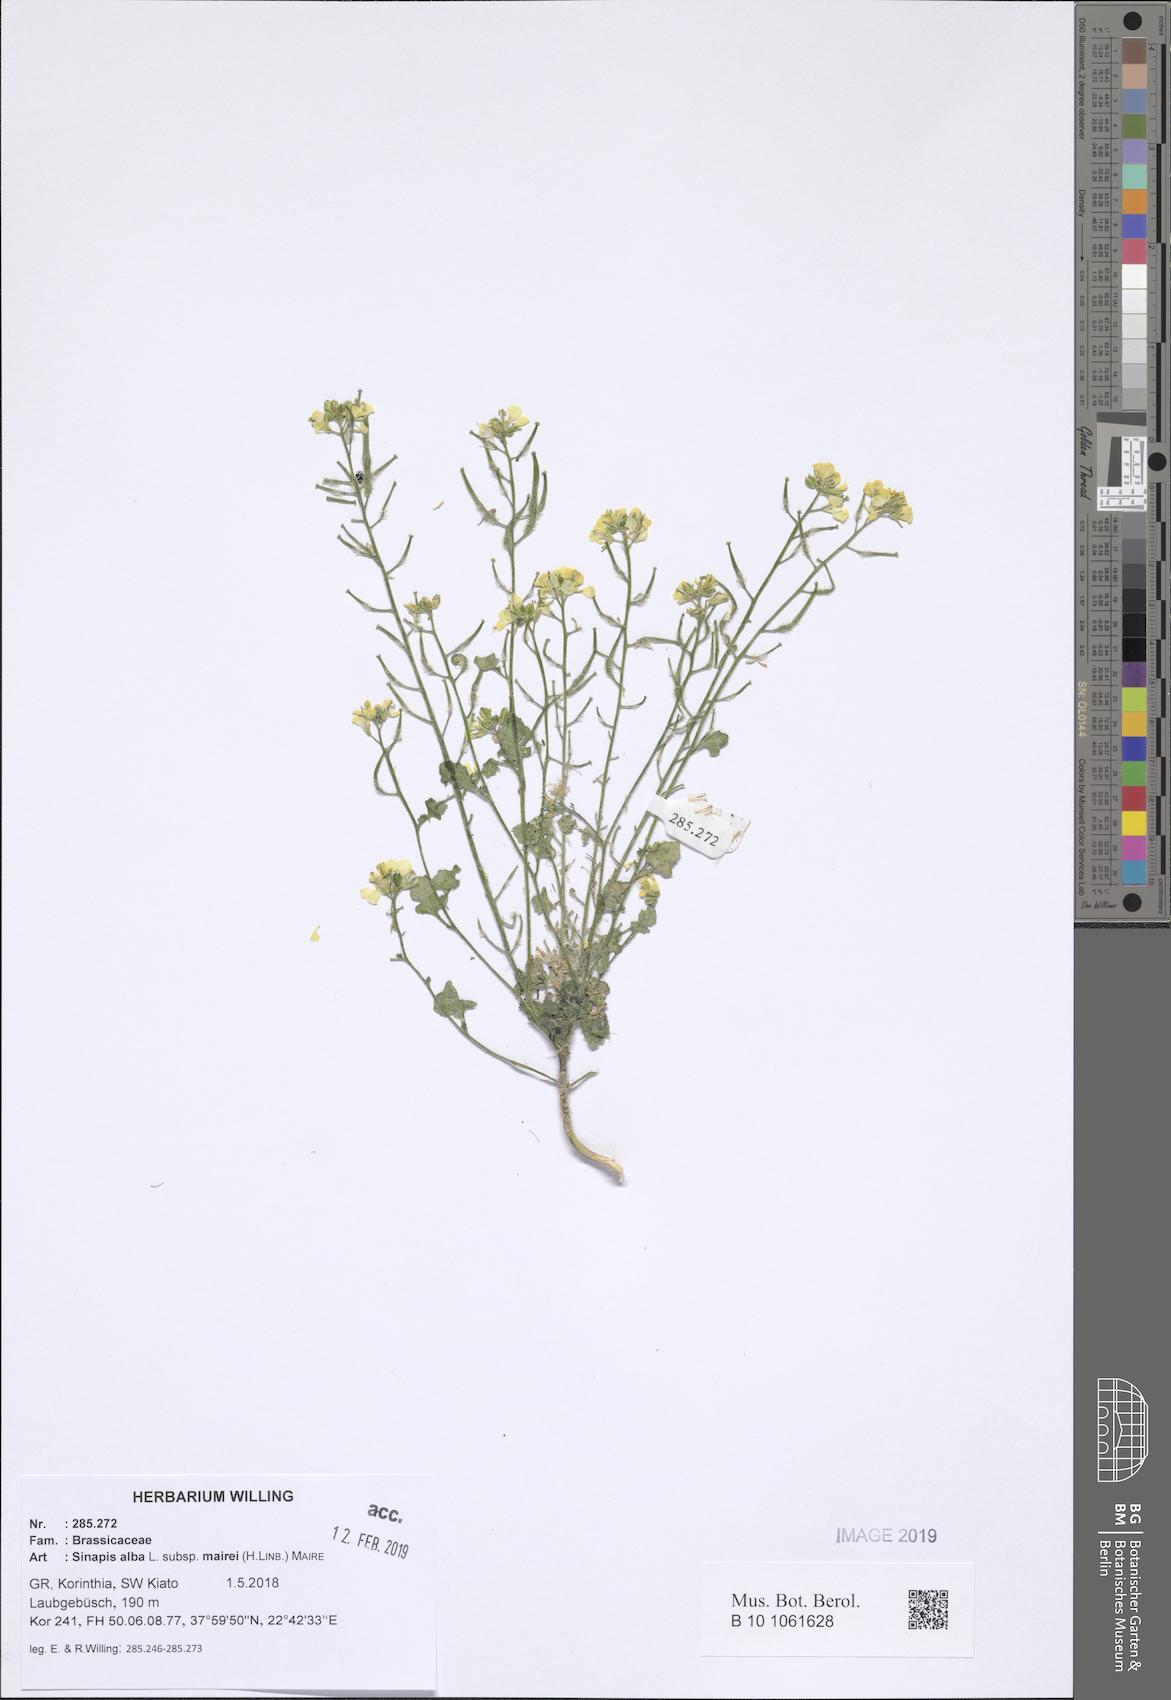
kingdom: Plantae
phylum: Tracheophyta
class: Magnoliopsida
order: Brassicales
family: Brassicaceae
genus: Sinapis
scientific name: Sinapis alba
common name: White mustard
